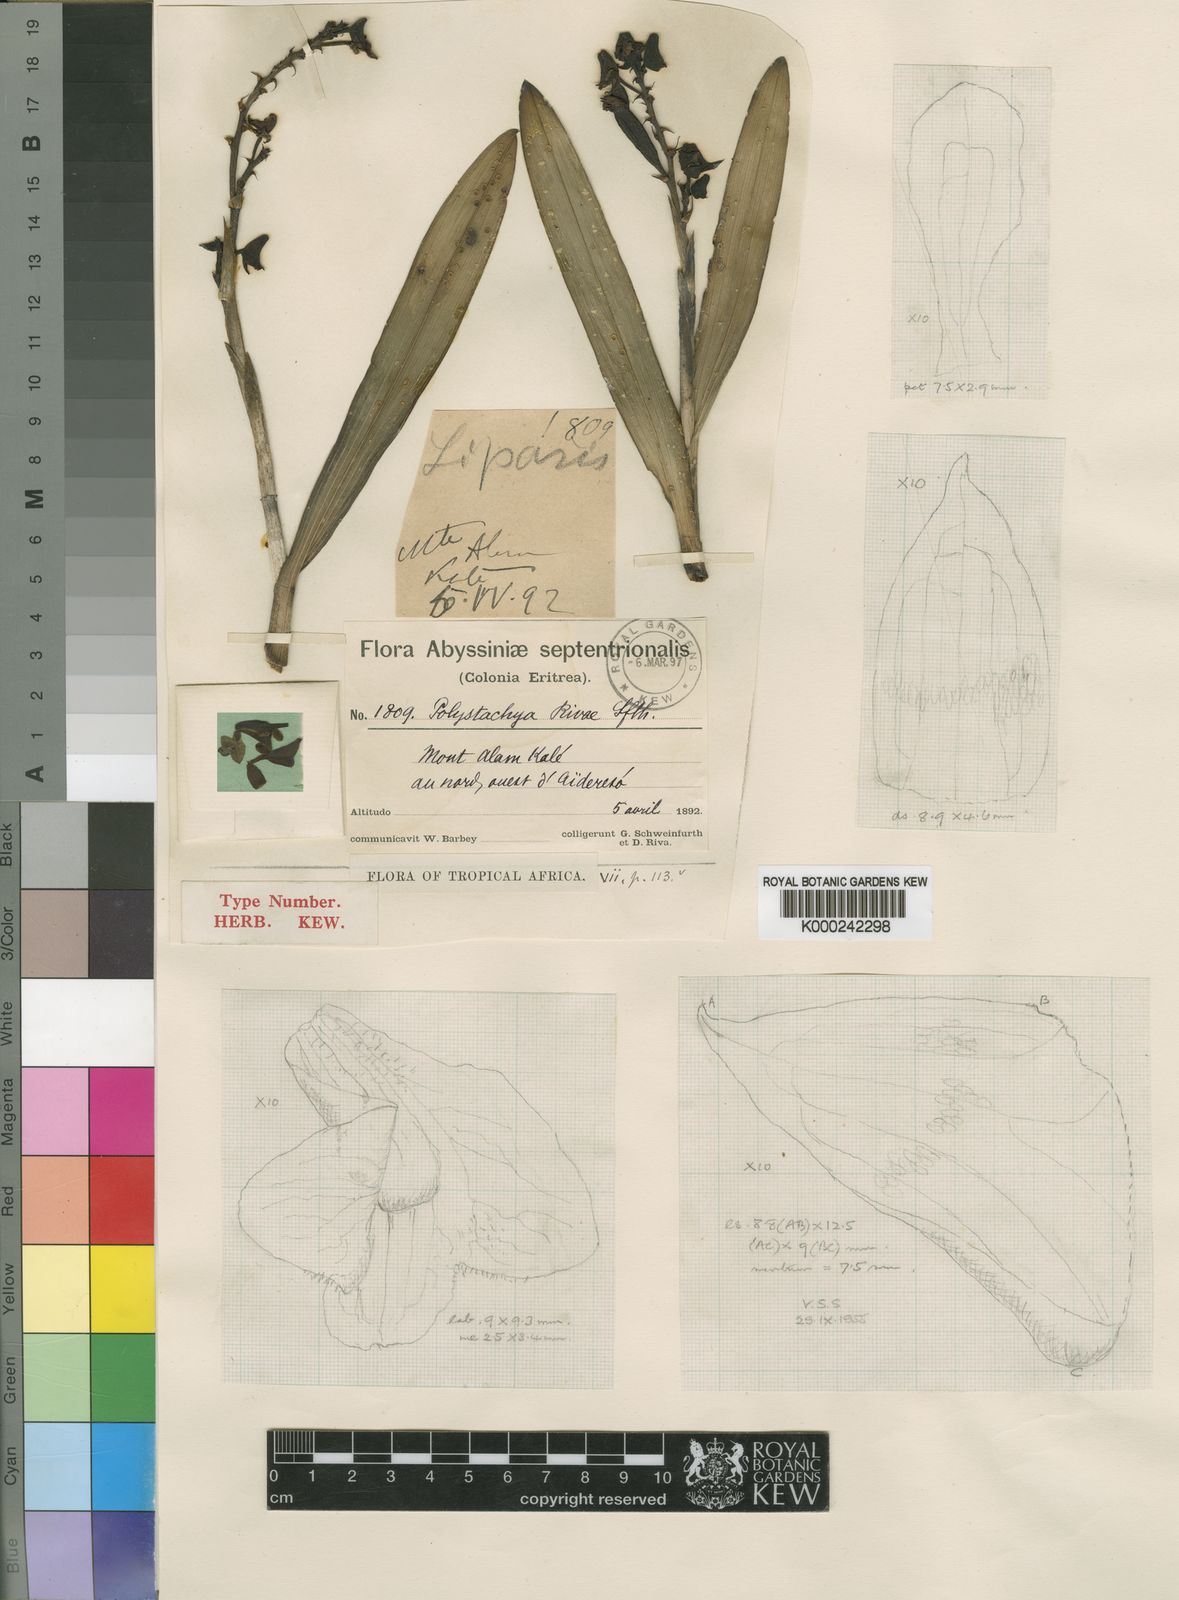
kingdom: Plantae
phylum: Tracheophyta
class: Liliopsida
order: Asparagales
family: Orchidaceae
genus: Polystachya
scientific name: Polystachya rivae
